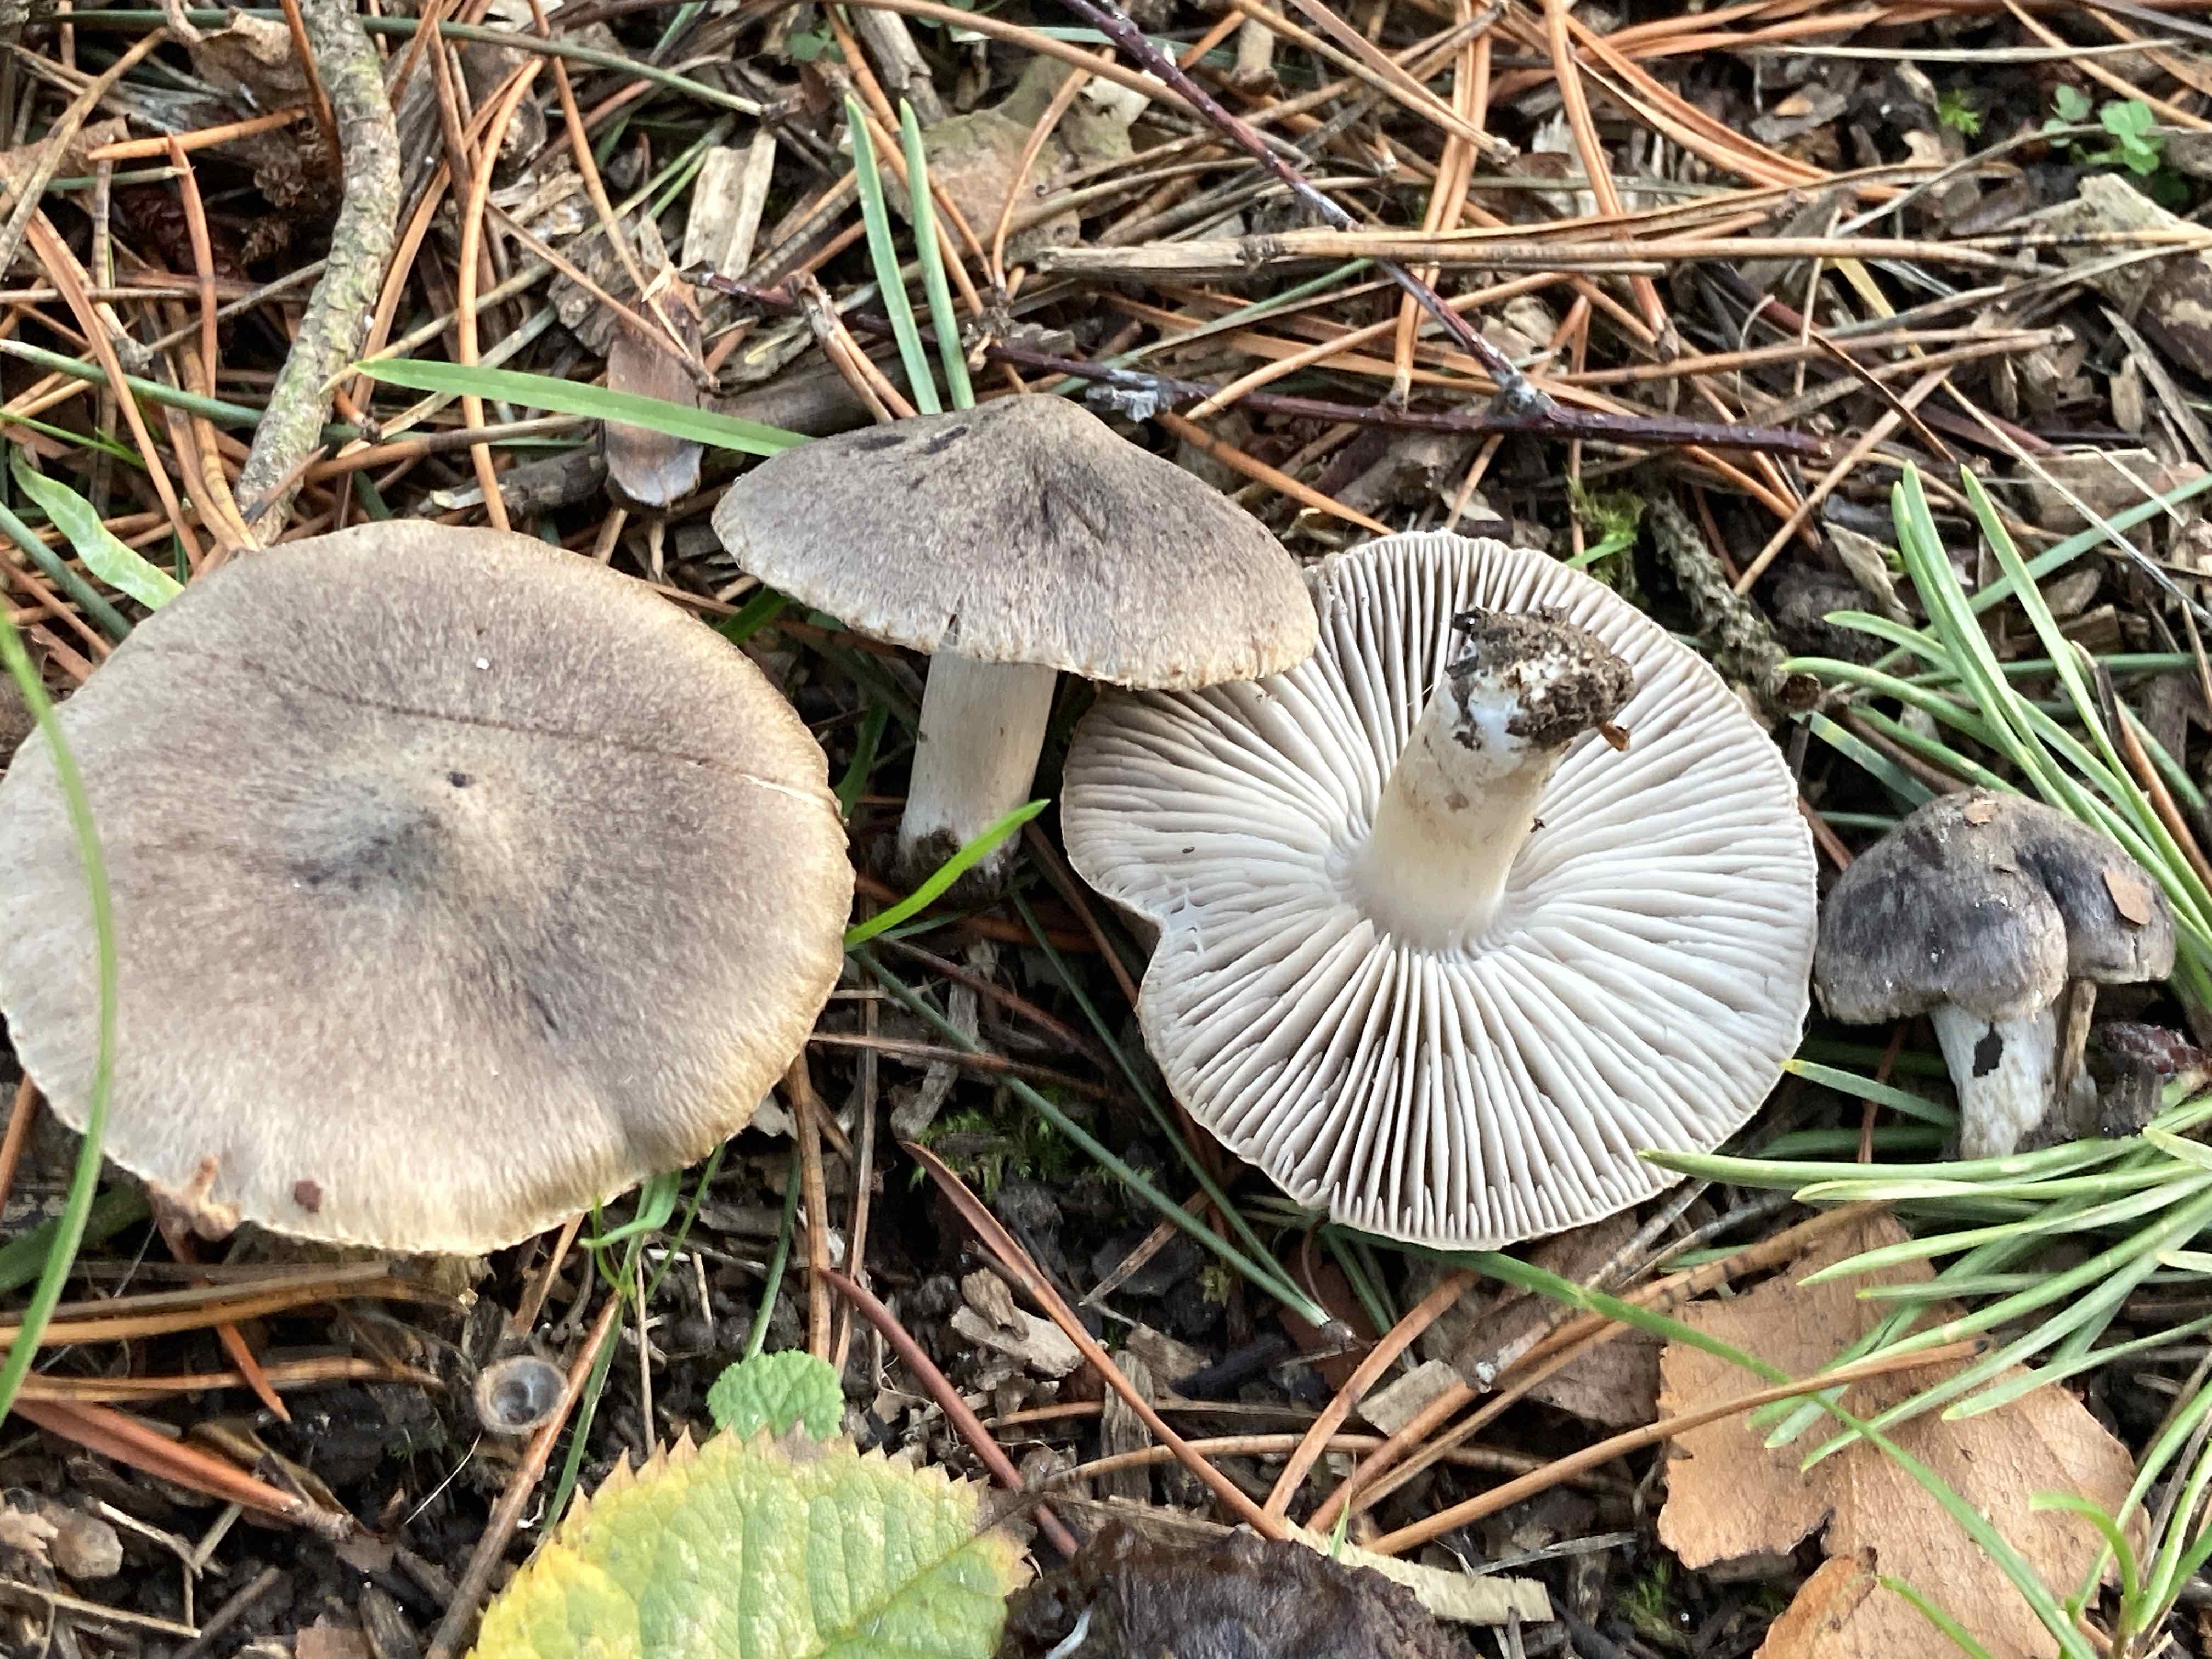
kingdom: Fungi
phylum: Basidiomycota
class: Agaricomycetes
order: Agaricales
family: Tricholomataceae
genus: Tricholoma
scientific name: Tricholoma terreum
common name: jordfarvet ridderhat
